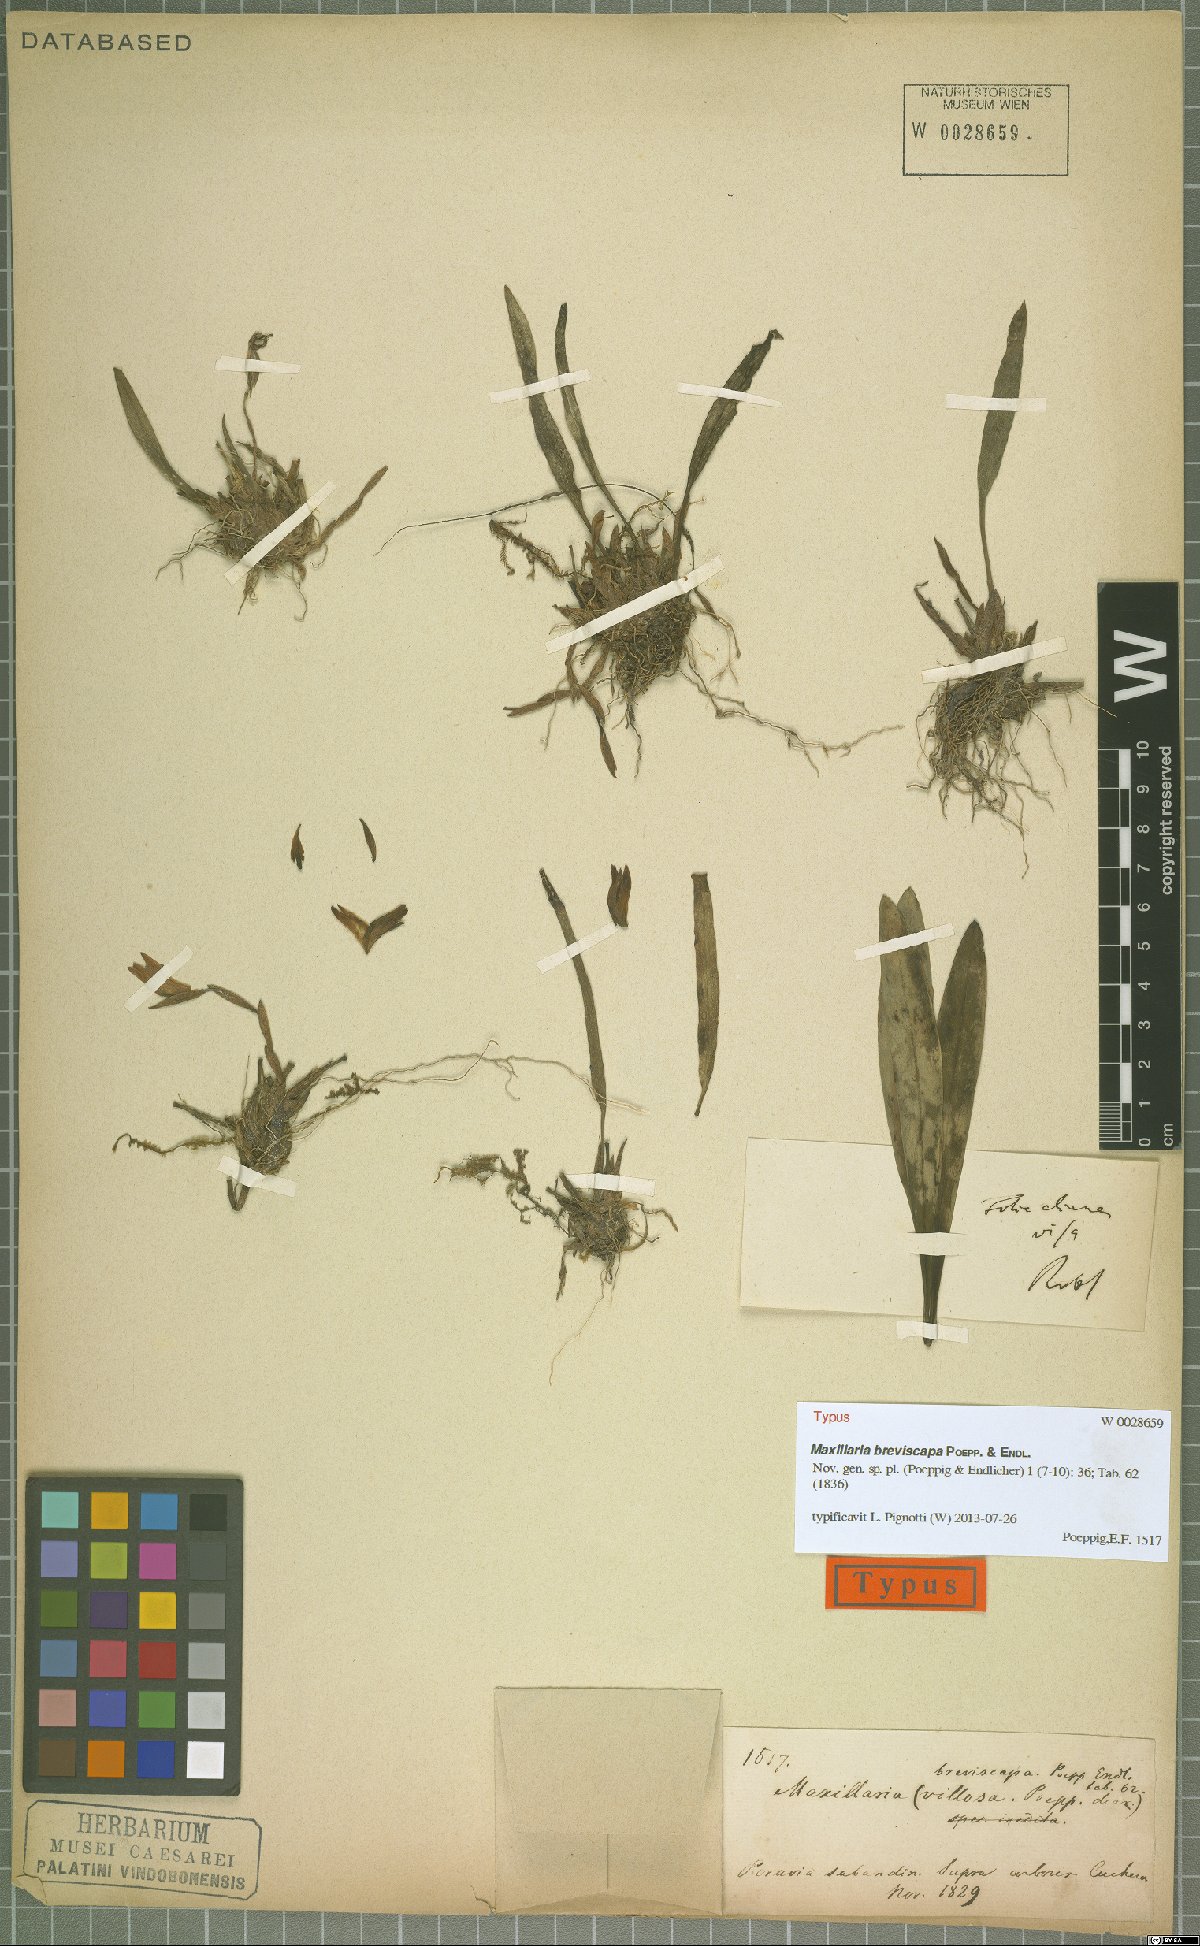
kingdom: Plantae
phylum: Tracheophyta
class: Liliopsida
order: Asparagales
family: Orchidaceae
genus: Maxillaria
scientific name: Maxillaria breviscapa
